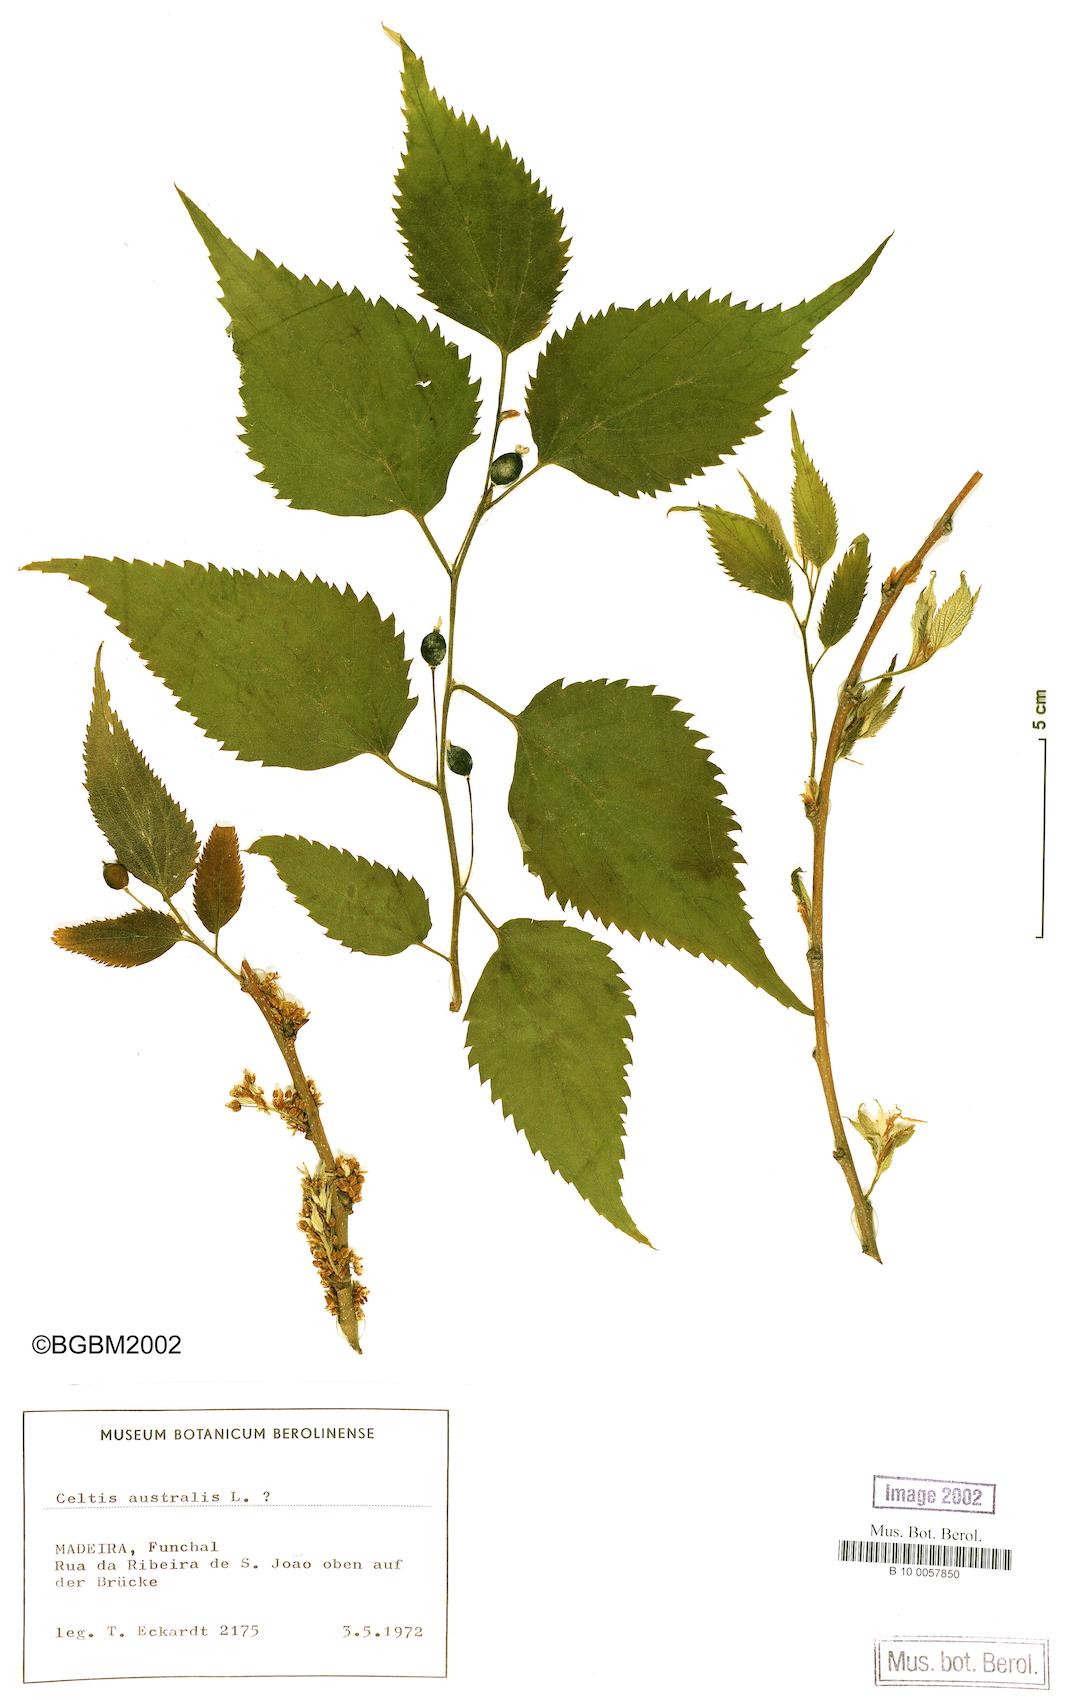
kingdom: Plantae
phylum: Tracheophyta
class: Magnoliopsida
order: Rosales
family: Cannabaceae
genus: Celtis
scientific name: Celtis australis
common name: European hackberry
